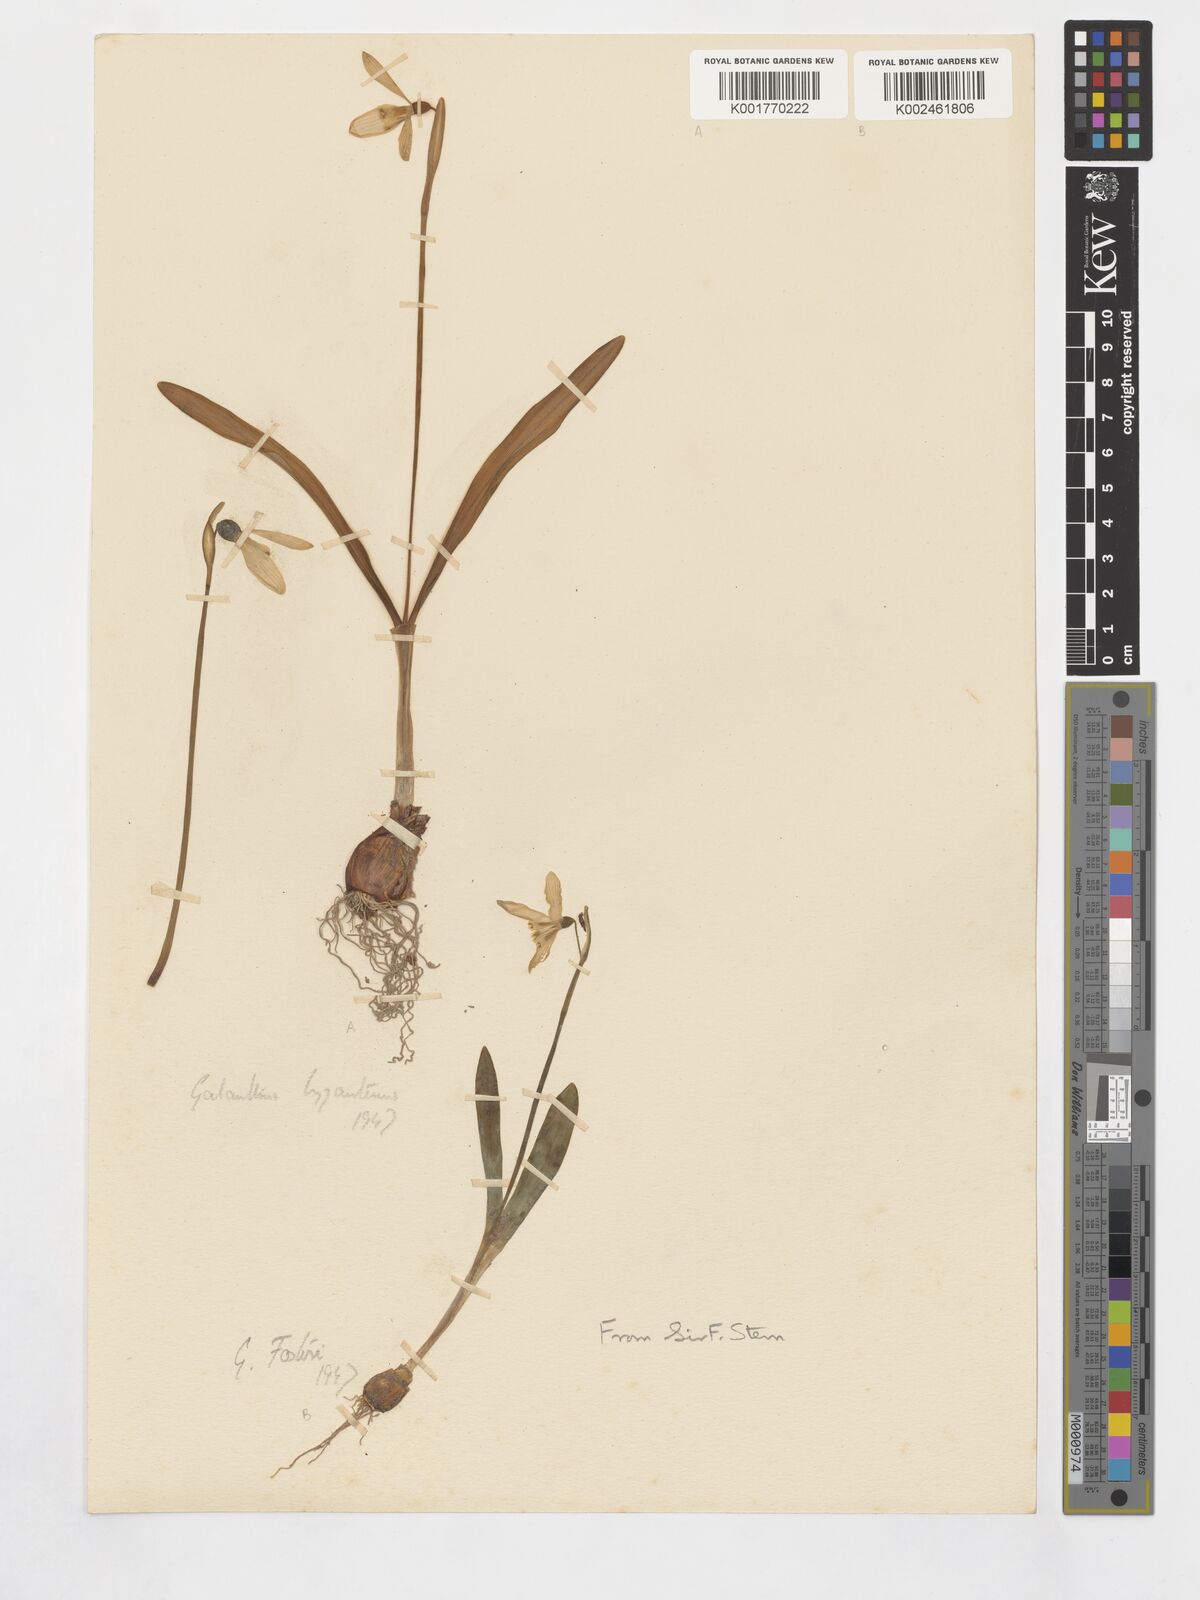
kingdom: Plantae
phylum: Tracheophyta
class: Liliopsida
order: Asparagales
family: Amaryllidaceae
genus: Galanthus
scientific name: Galanthus plicatus
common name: Pleated snowdrop
